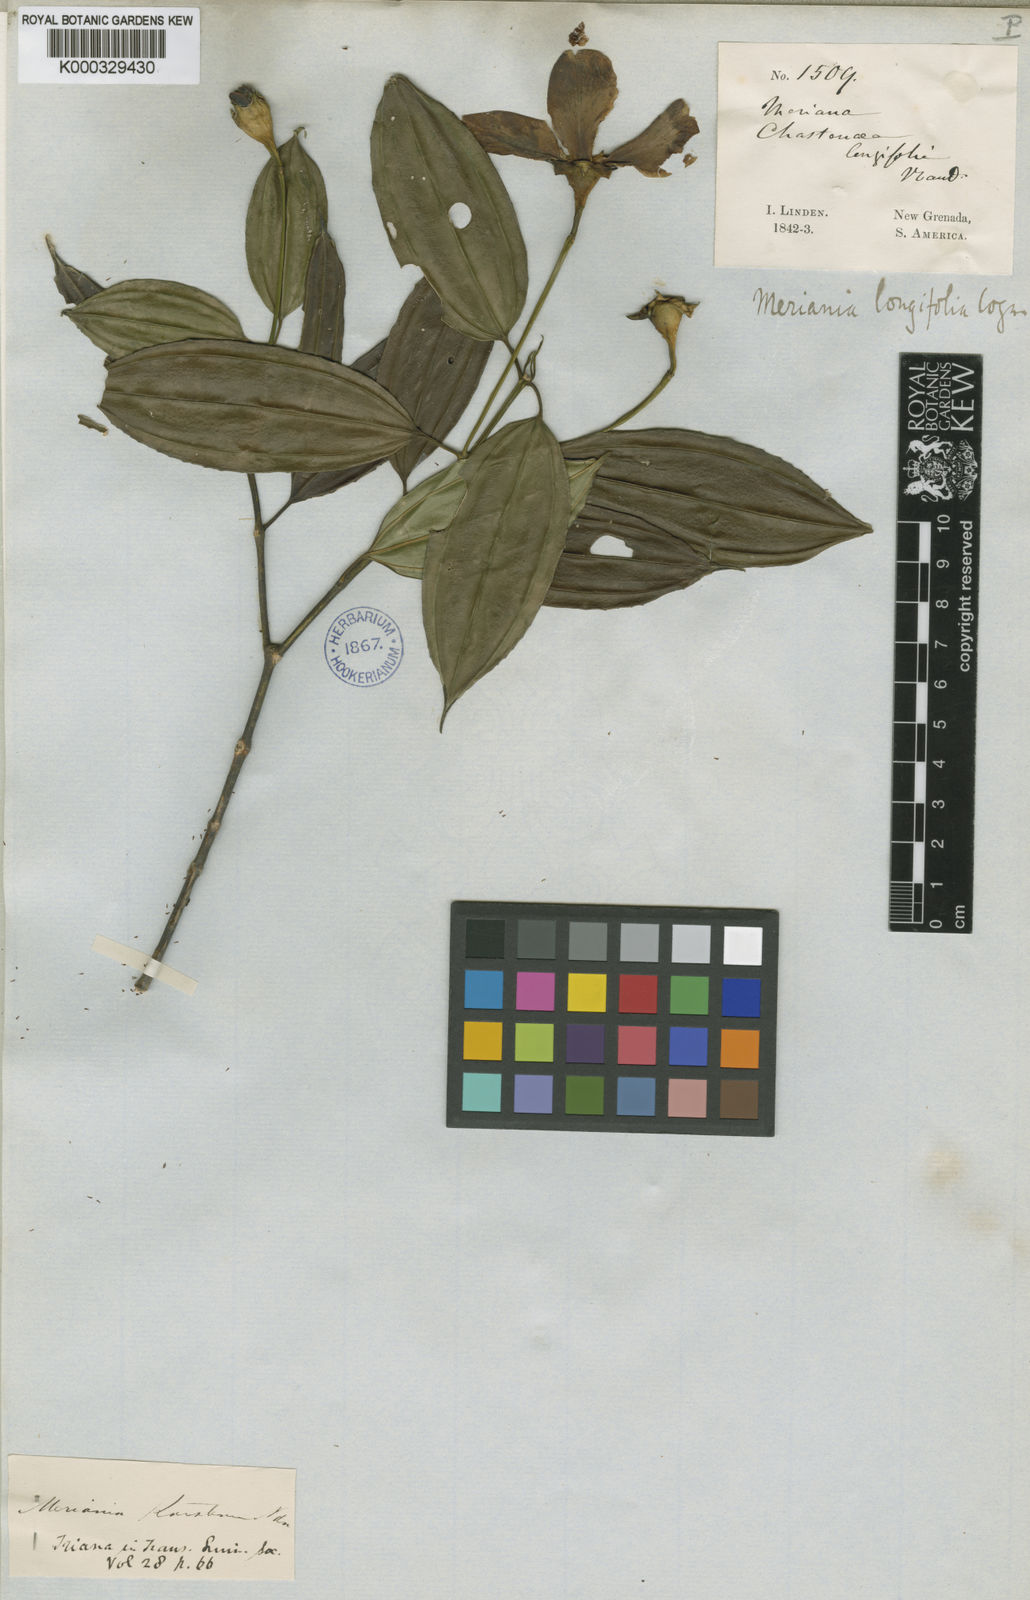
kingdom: Plantae
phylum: Tracheophyta
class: Magnoliopsida
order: Myrtales
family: Melastomataceae
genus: Meriania
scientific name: Meriania longifolia
